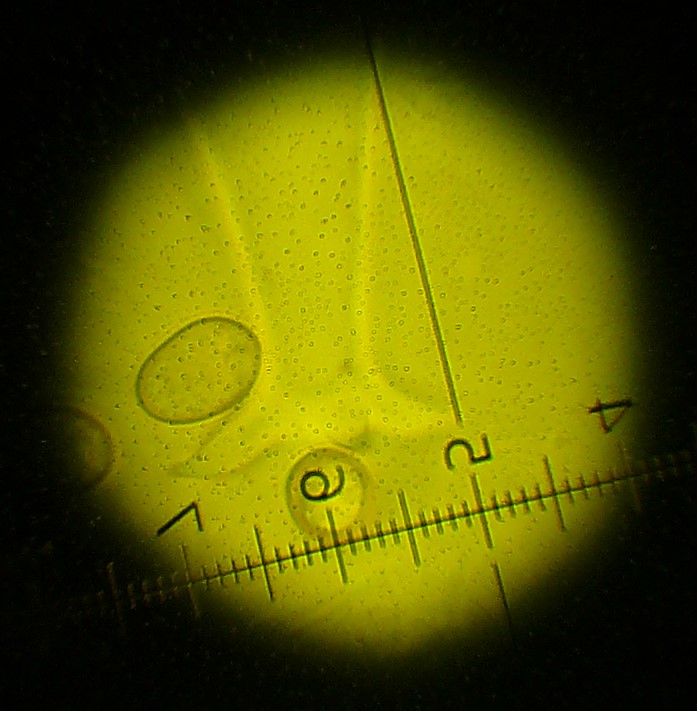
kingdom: Fungi
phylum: Basidiomycota
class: Agaricomycetes
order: Agaricales
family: Pluteaceae
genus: Pluteus
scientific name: Pluteus salicinus
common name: stiv skærmhat
